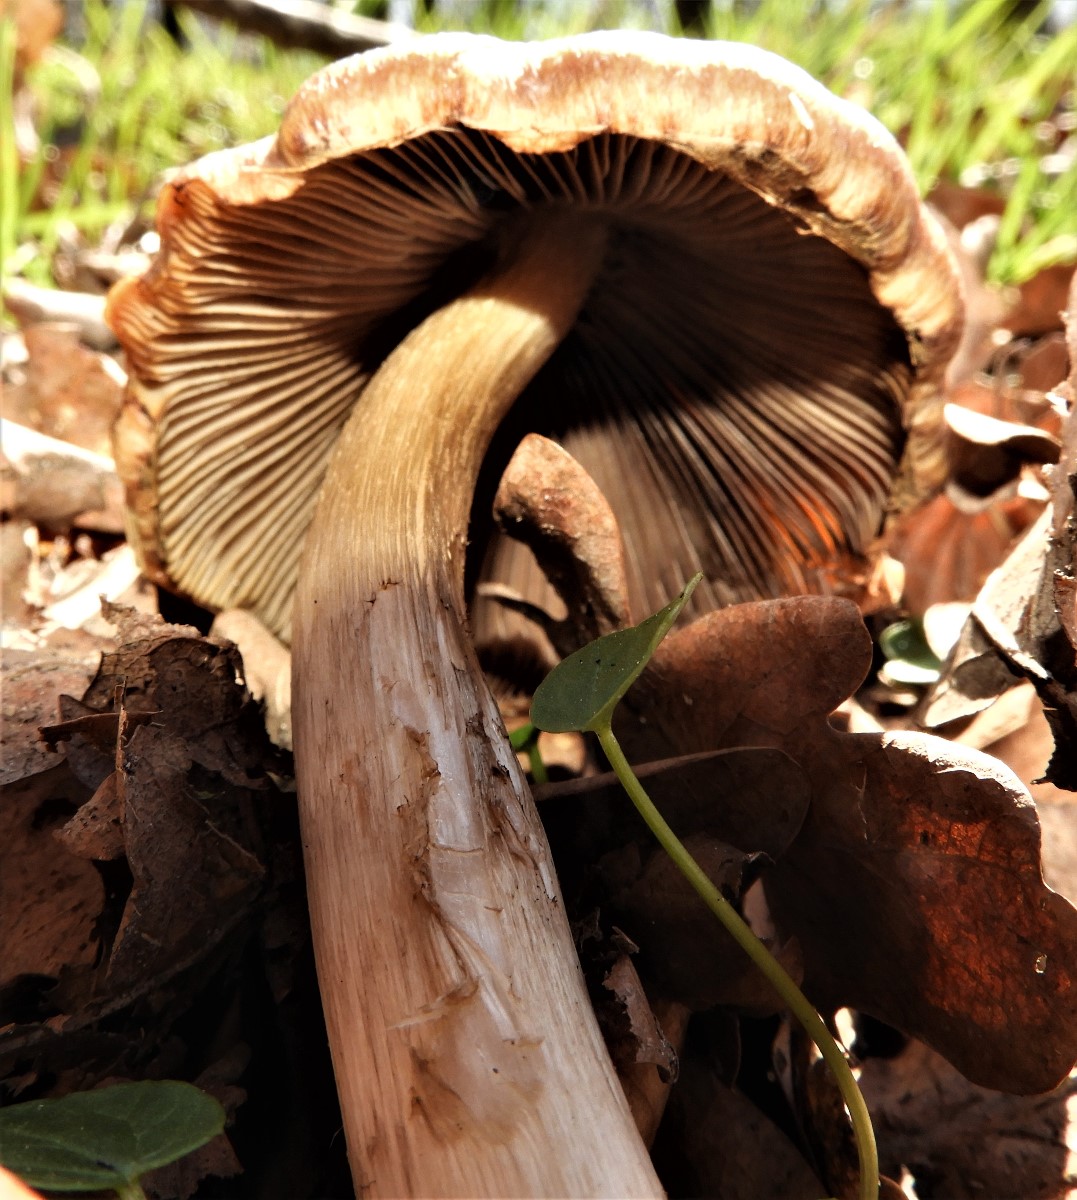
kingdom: Fungi
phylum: Basidiomycota
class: Agaricomycetes
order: Agaricales
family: Psathyrellaceae
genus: Psathyrella
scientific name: Psathyrella
